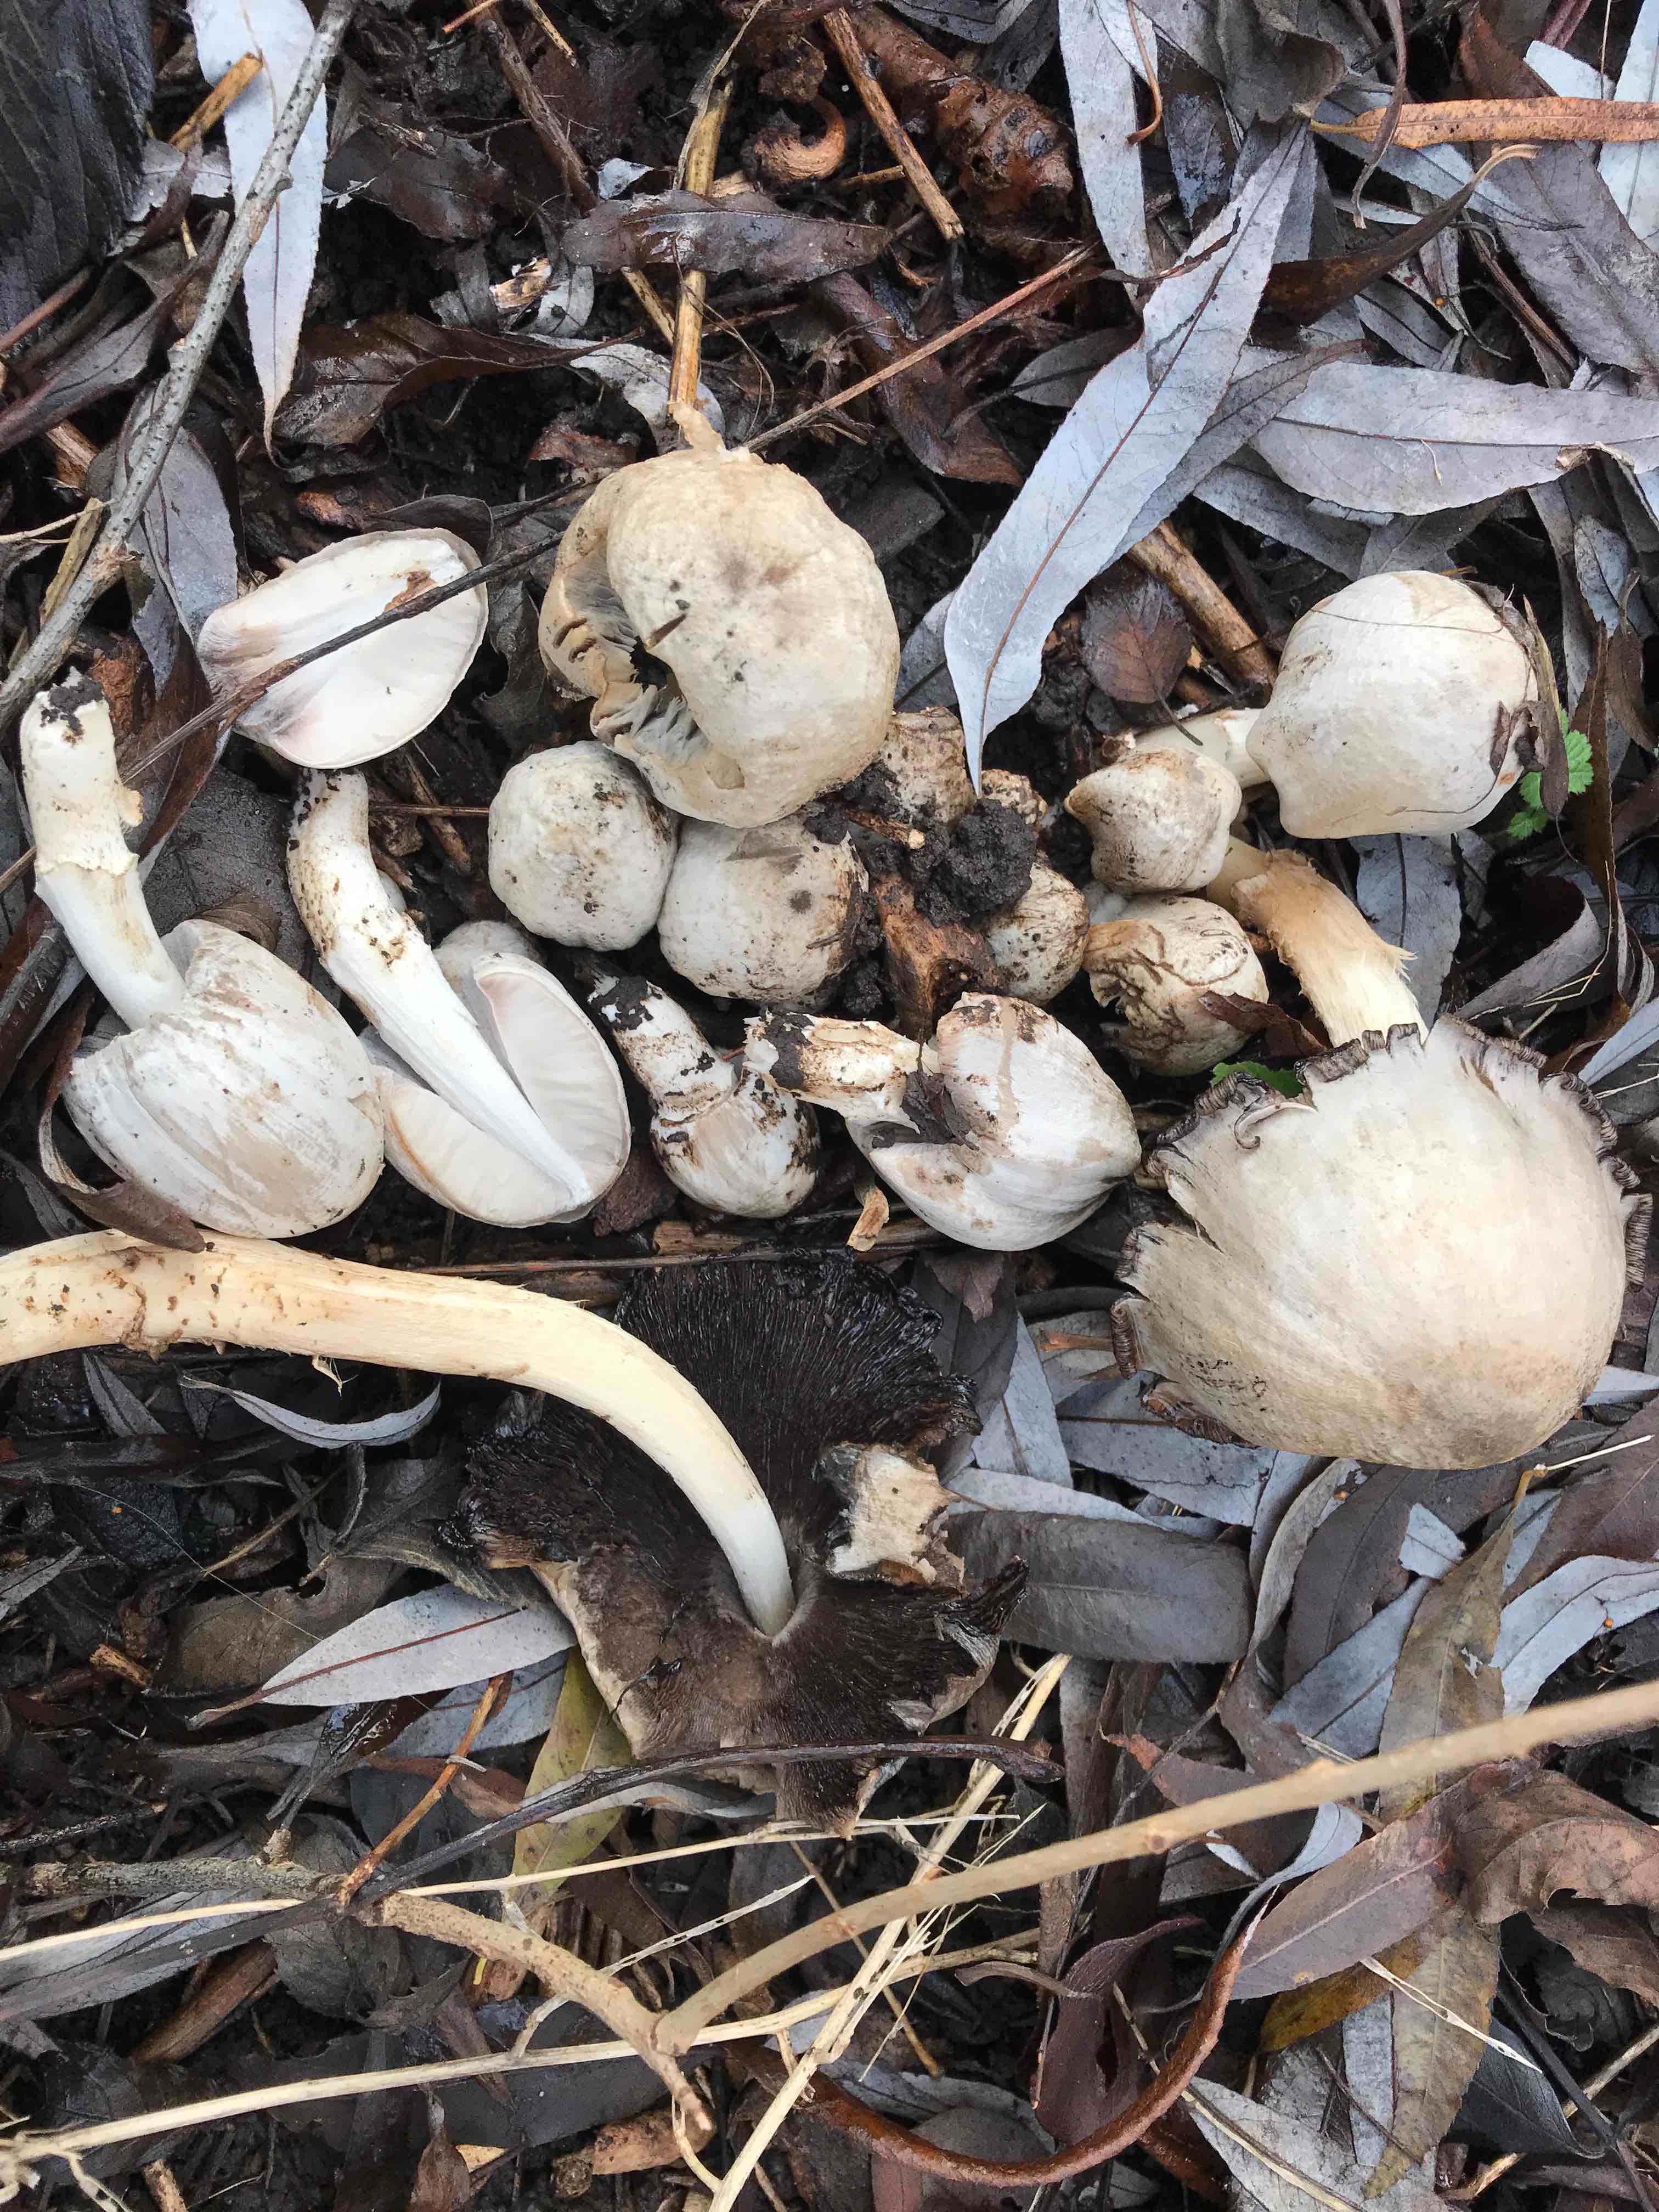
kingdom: Fungi
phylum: Basidiomycota
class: Agaricomycetes
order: Agaricales
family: Psathyrellaceae
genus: Coprinopsis
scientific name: Coprinopsis atramentaria
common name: almindelig blækhat
